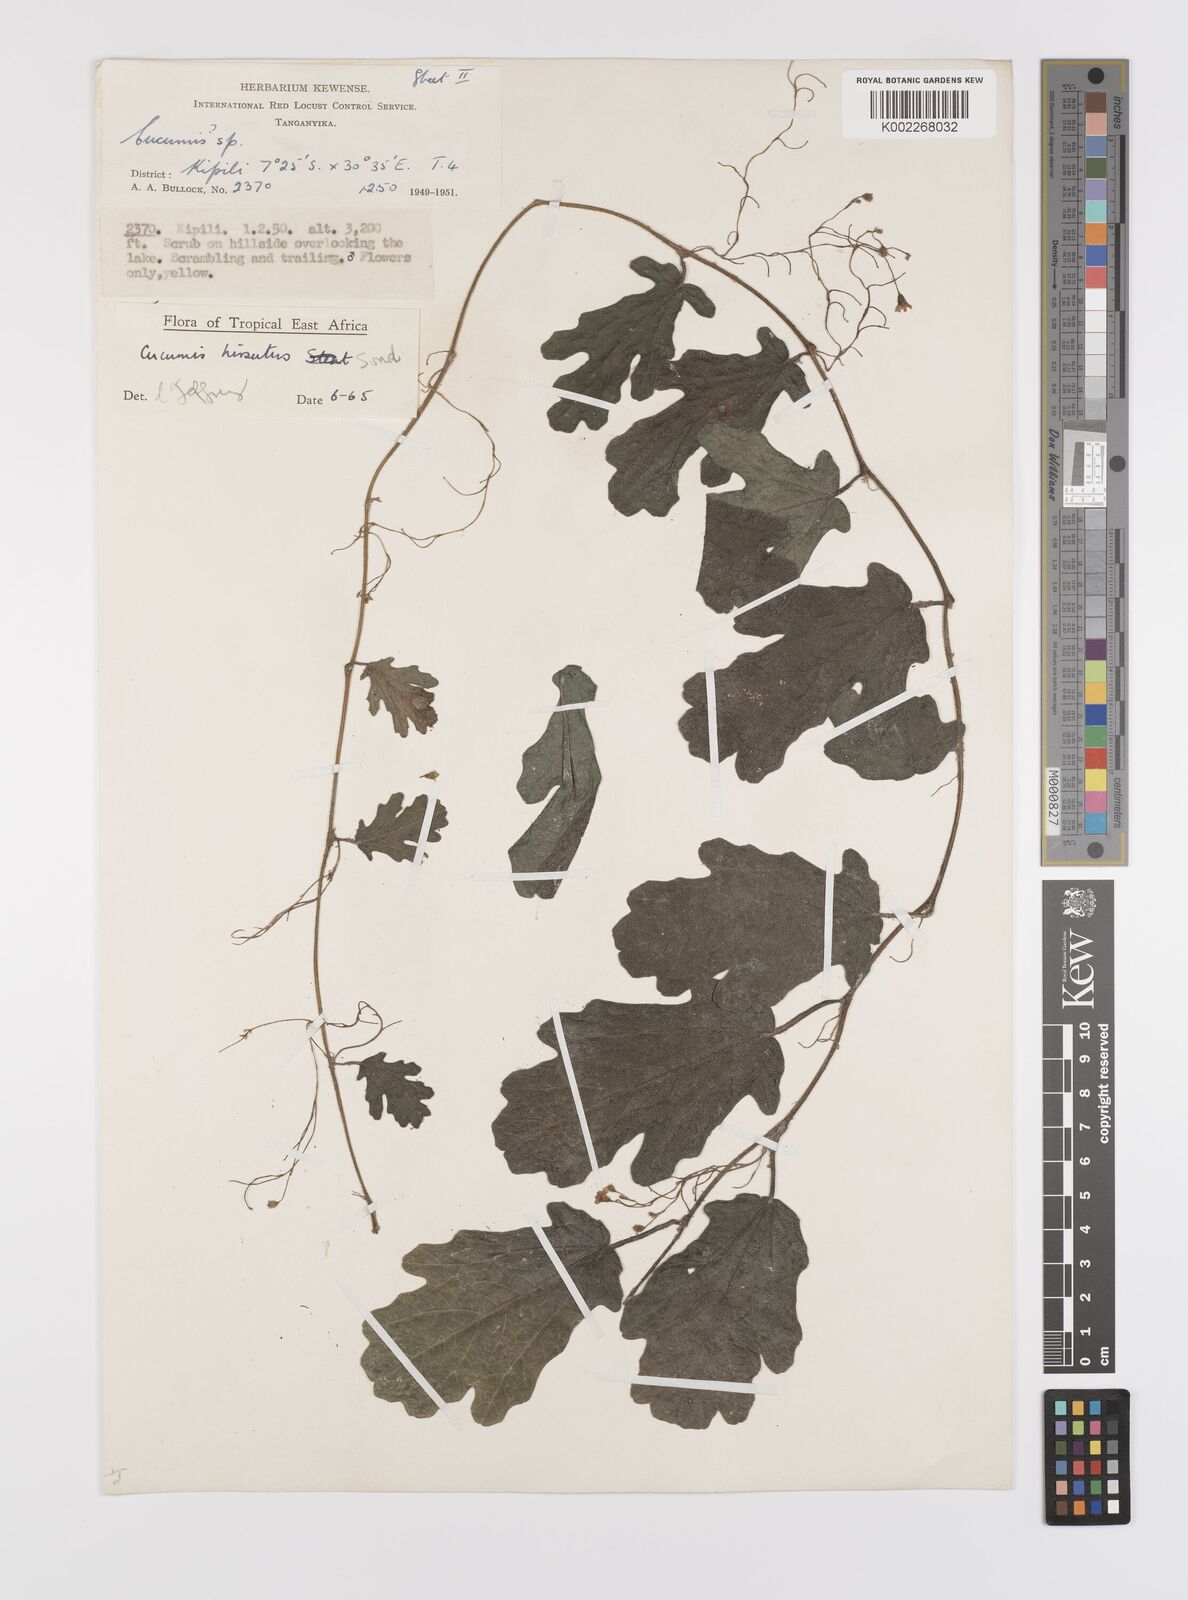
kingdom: Plantae
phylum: Tracheophyta
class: Magnoliopsida
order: Cucurbitales
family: Cucurbitaceae
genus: Cucumis
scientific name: Cucumis hirsutus
